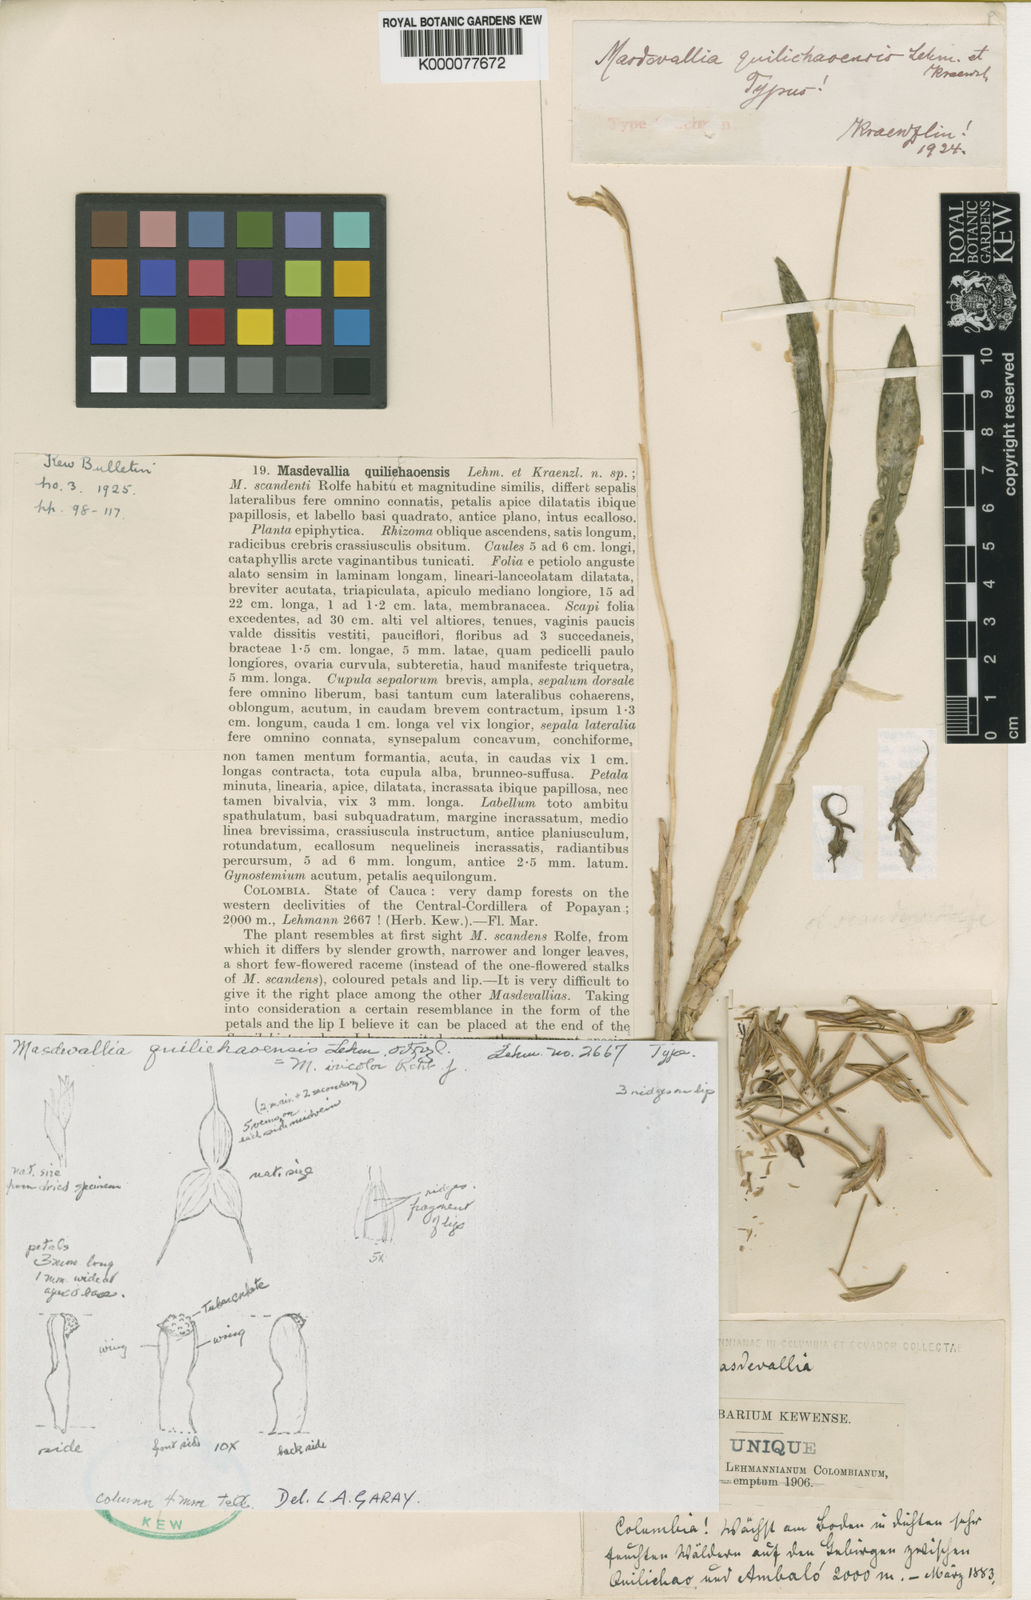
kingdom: Plantae
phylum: Tracheophyta
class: Liliopsida
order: Asparagales
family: Orchidaceae
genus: Dracula
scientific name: Dracula trichroma
